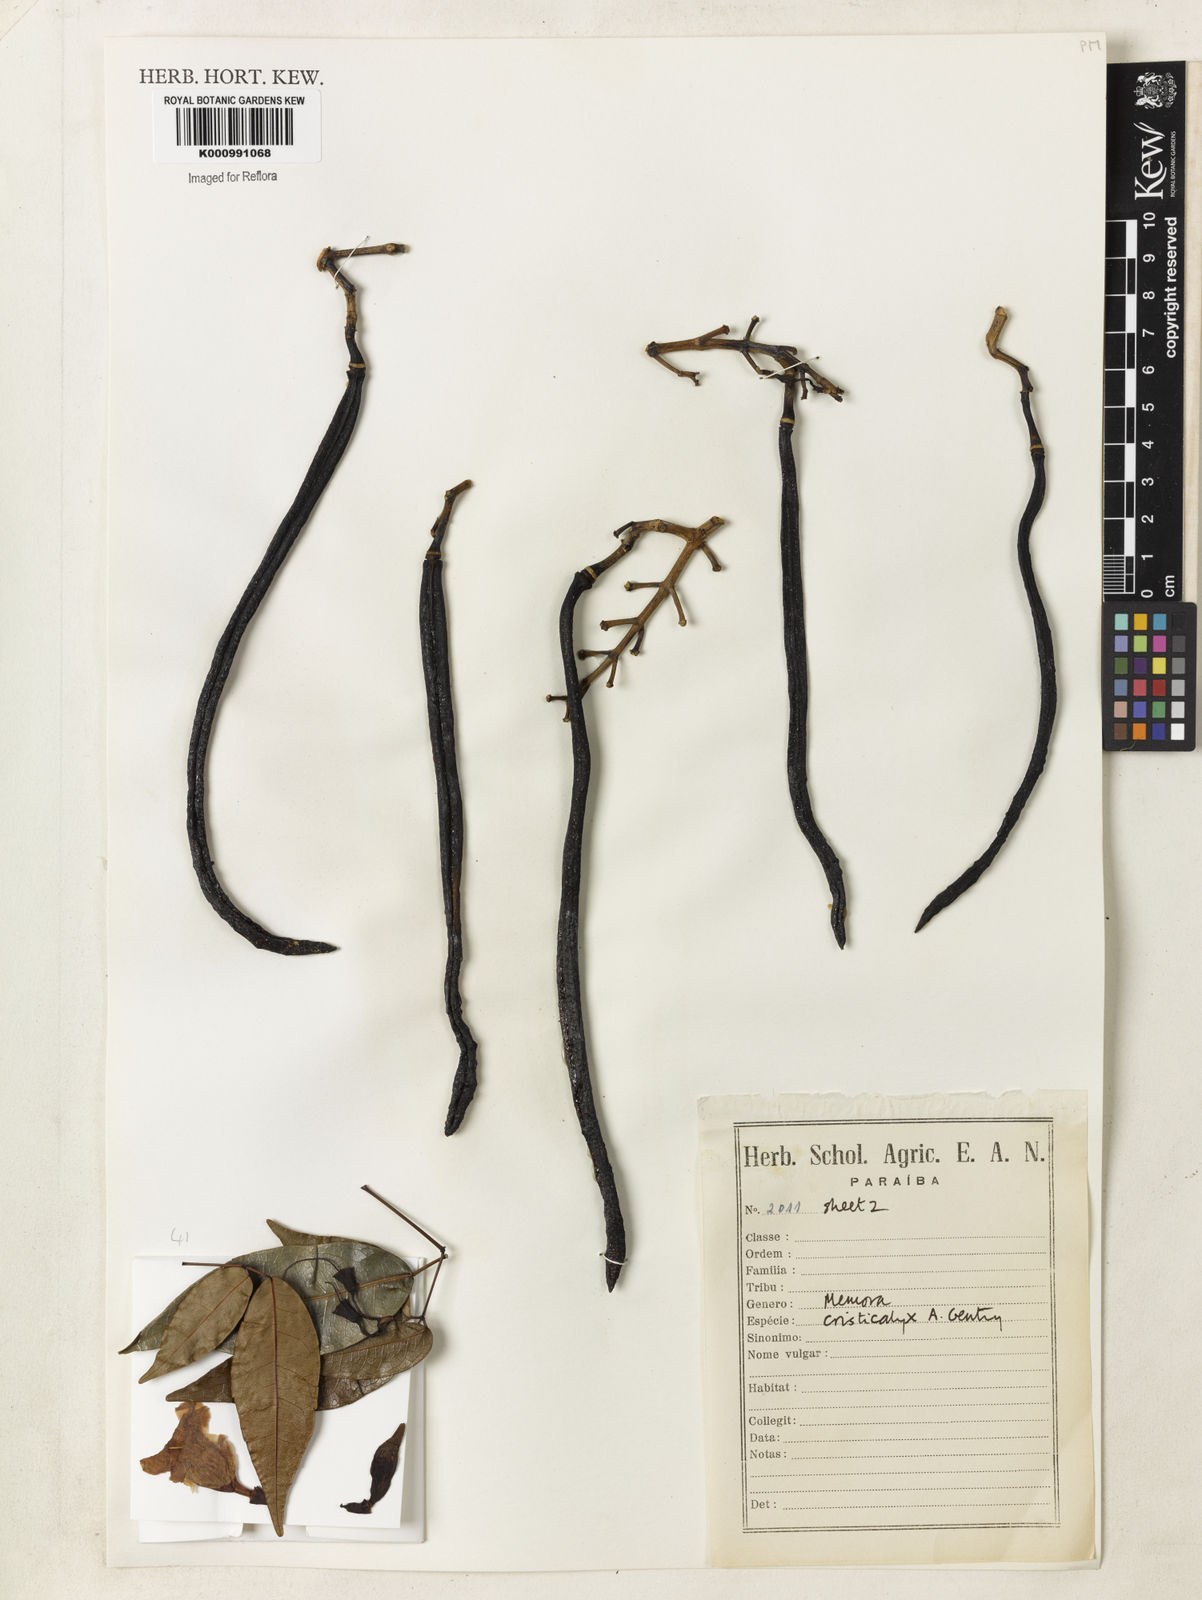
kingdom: Plantae
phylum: Tracheophyta
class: Magnoliopsida
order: Lamiales
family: Bignoniaceae
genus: Adenocalymma
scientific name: Adenocalymma cristicalyx
